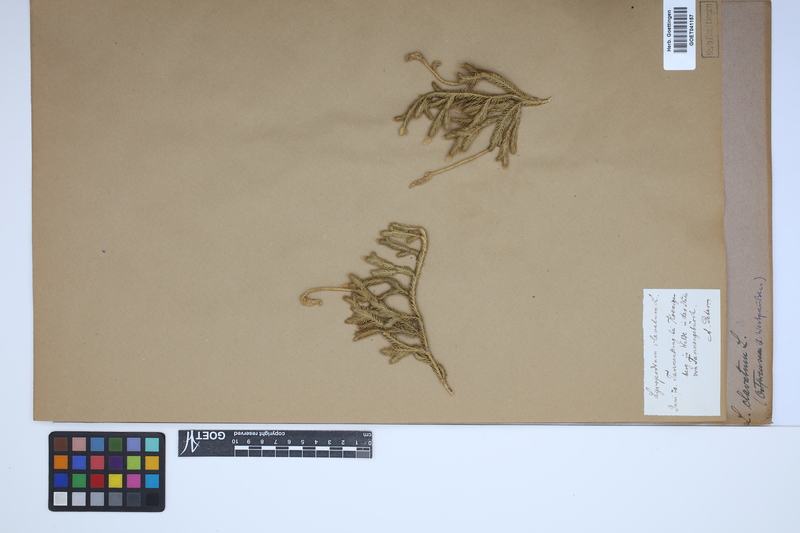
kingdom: Plantae
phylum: Tracheophyta
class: Lycopodiopsida
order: Lycopodiales
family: Lycopodiaceae
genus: Lycopodium
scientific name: Lycopodium clavatum
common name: Stag's-horn clubmoss
